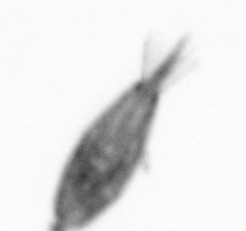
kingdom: Animalia
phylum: Arthropoda
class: Maxillopoda
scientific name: Maxillopoda
